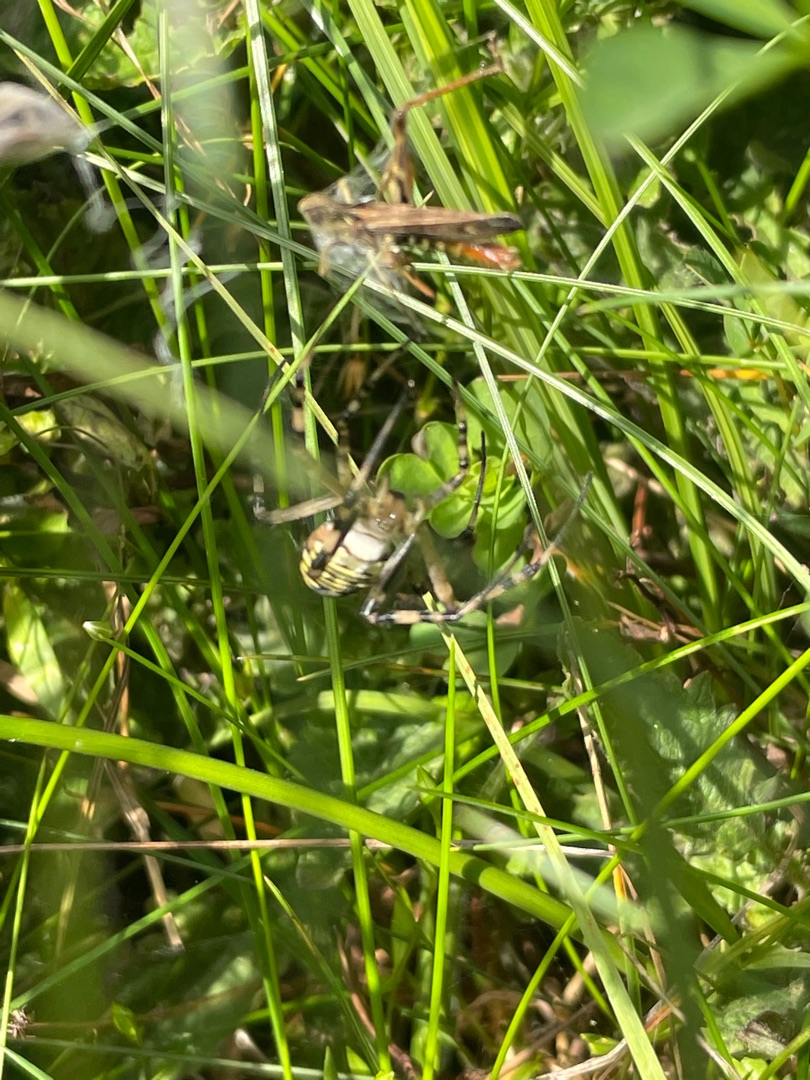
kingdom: Animalia
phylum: Arthropoda
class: Arachnida
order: Araneae
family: Araneidae
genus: Argiope
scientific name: Argiope bruennichi
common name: Hvepseedderkop
